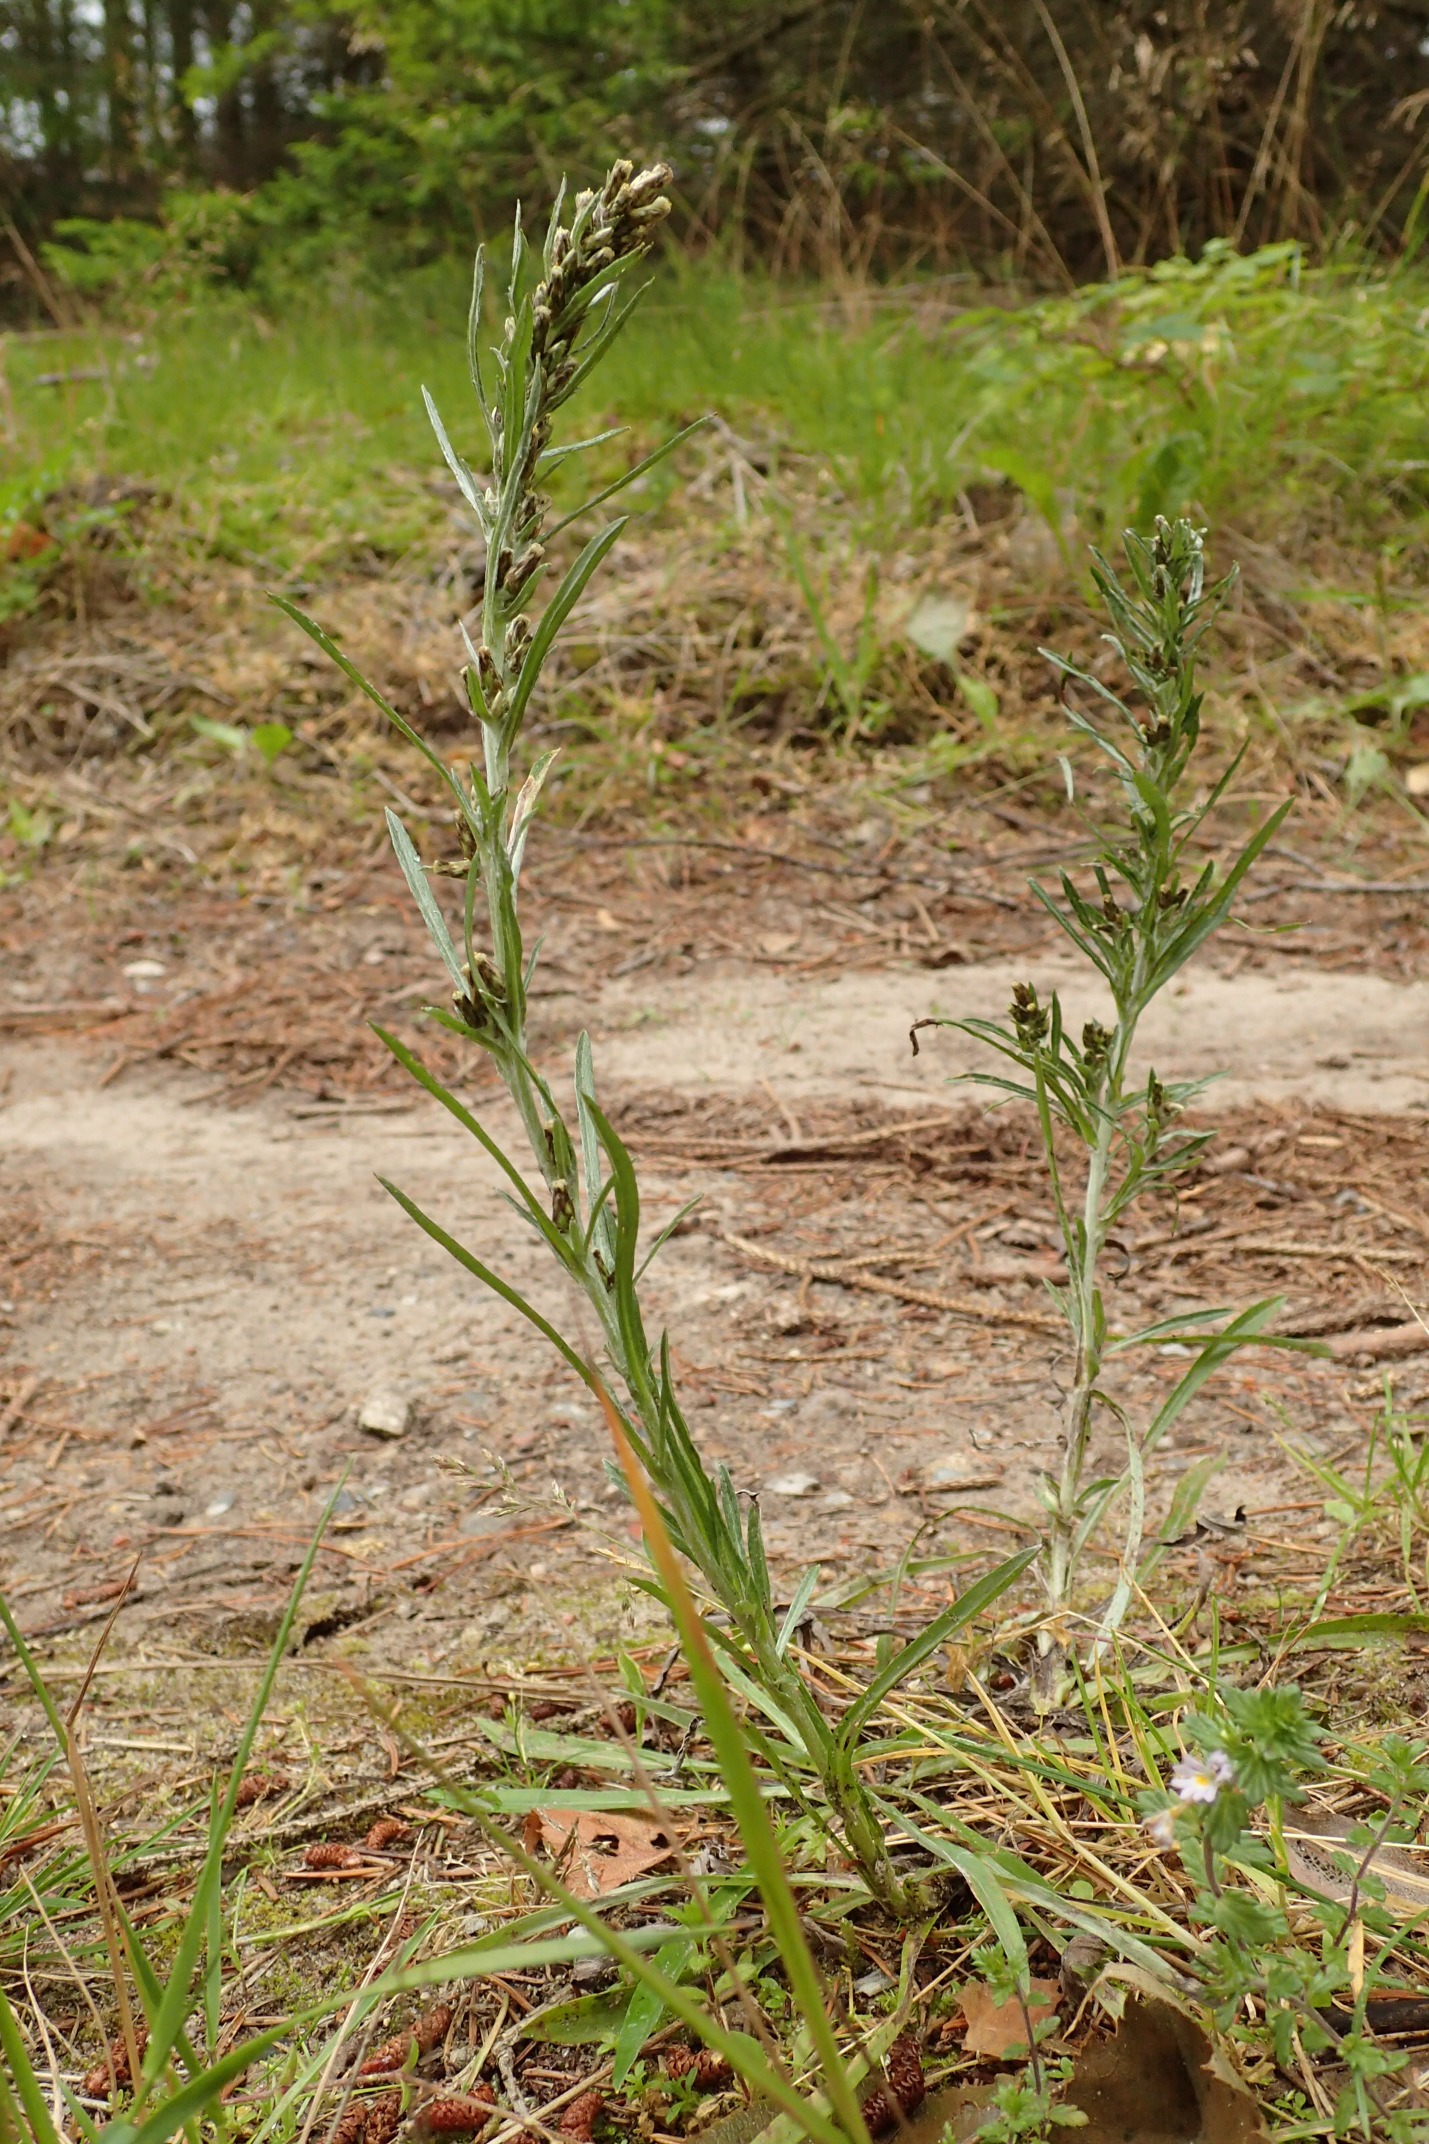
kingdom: Plantae
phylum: Tracheophyta
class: Magnoliopsida
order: Asterales
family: Asteraceae
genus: Omalotheca
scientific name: Omalotheca sylvatica
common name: Rank evighedsblomst
